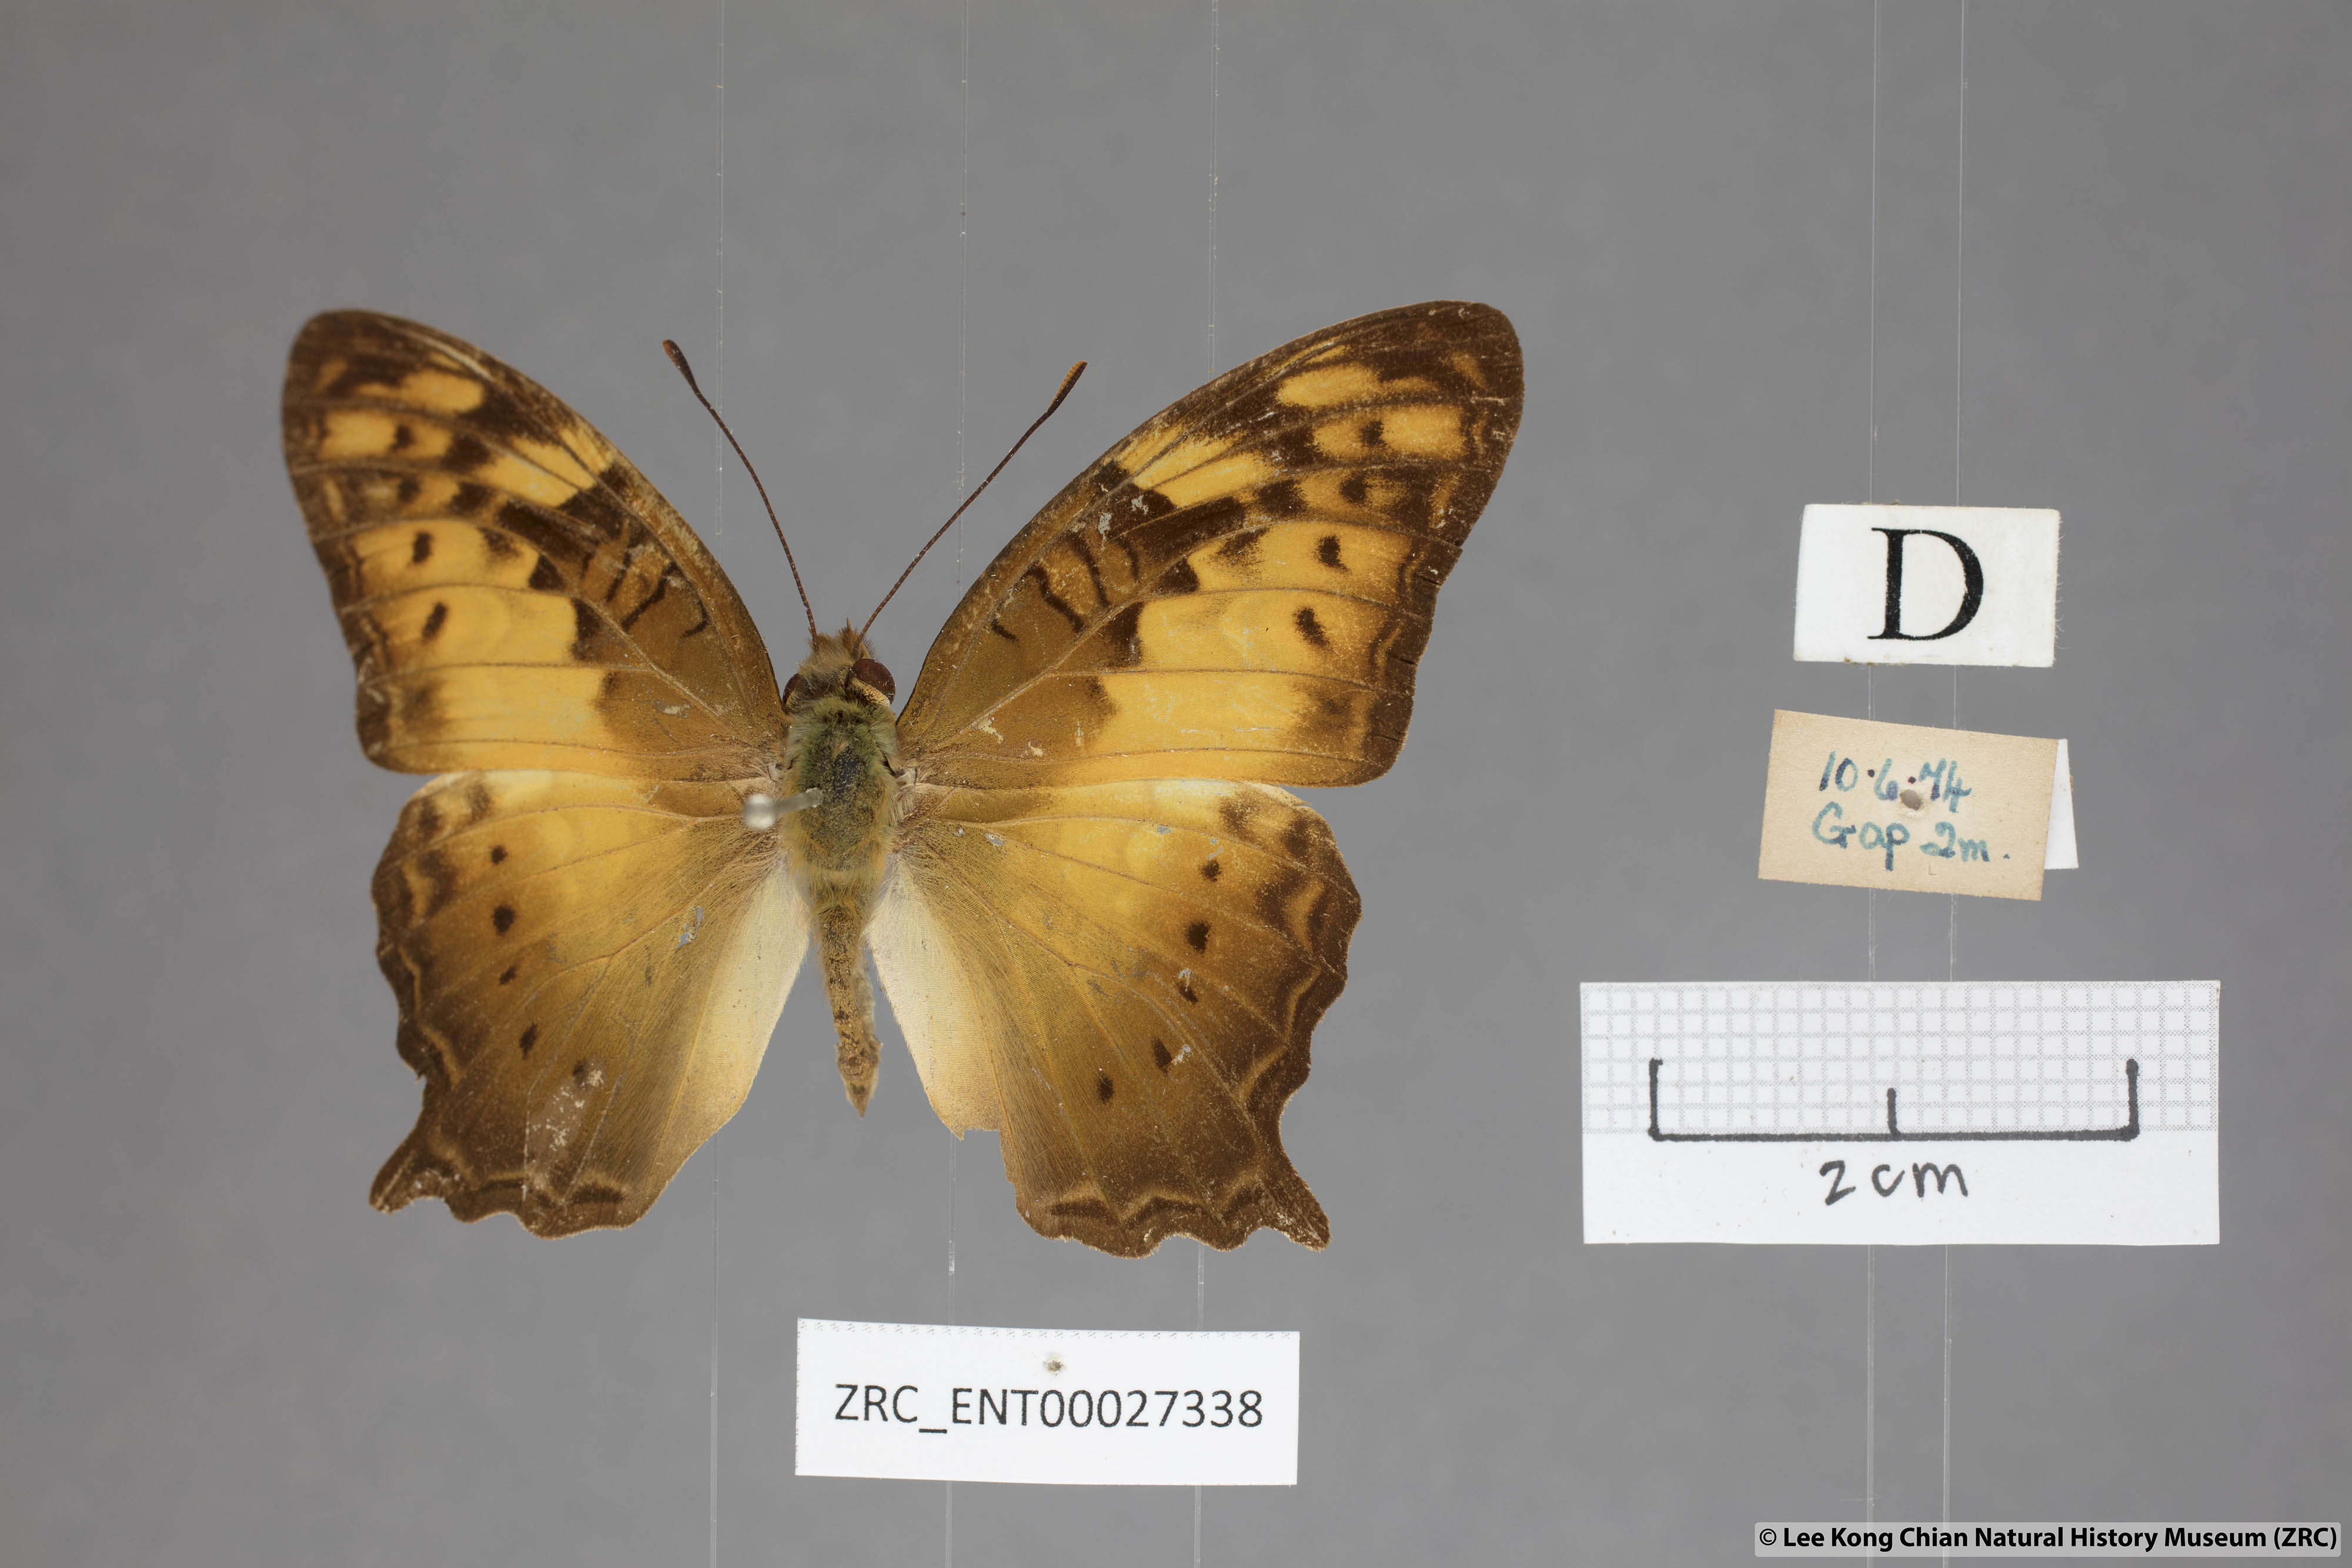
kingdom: Animalia
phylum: Arthropoda
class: Insecta
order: Lepidoptera
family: Nymphalidae
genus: Vagrans
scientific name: Vagrans egista
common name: Tailed rustic
